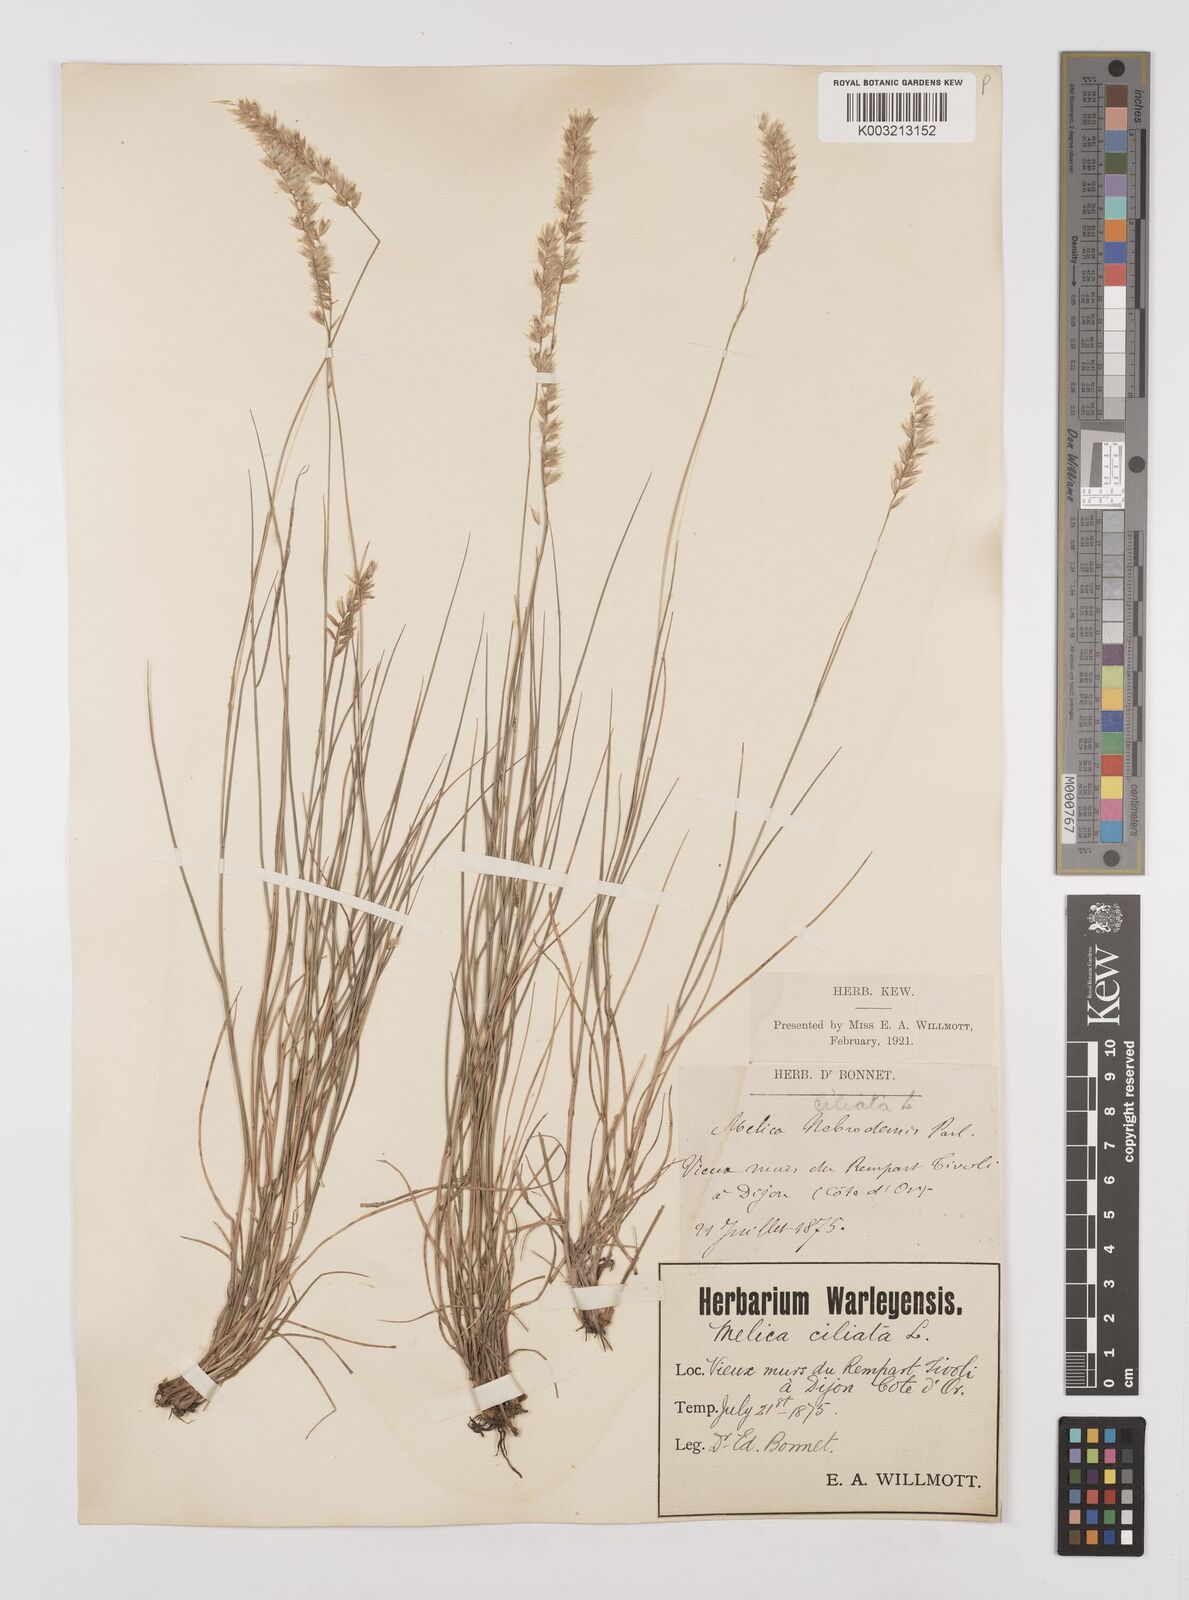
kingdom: Plantae
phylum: Tracheophyta
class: Liliopsida
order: Poales
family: Poaceae
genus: Melica
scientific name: Melica ciliata
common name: Hairy melicgrass
